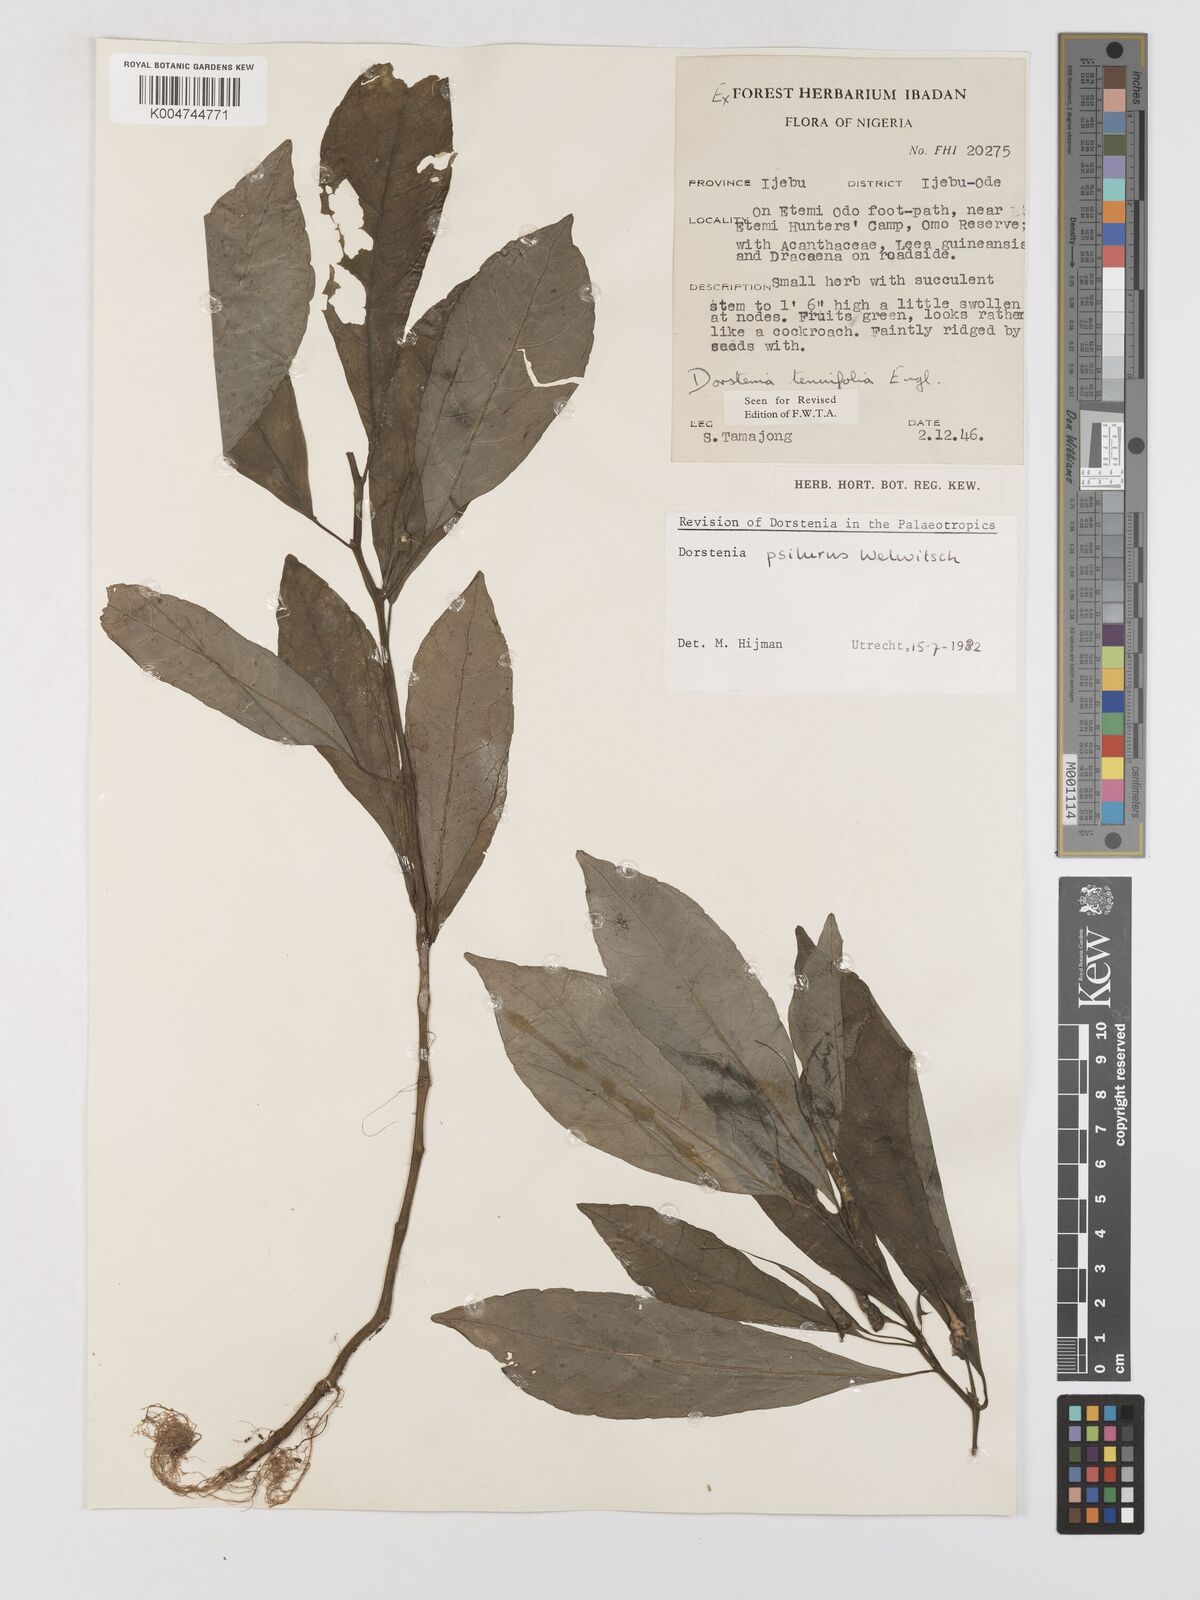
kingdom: Plantae
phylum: Tracheophyta
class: Magnoliopsida
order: Rosales
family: Moraceae
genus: Dorstenia
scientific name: Dorstenia psilurus
